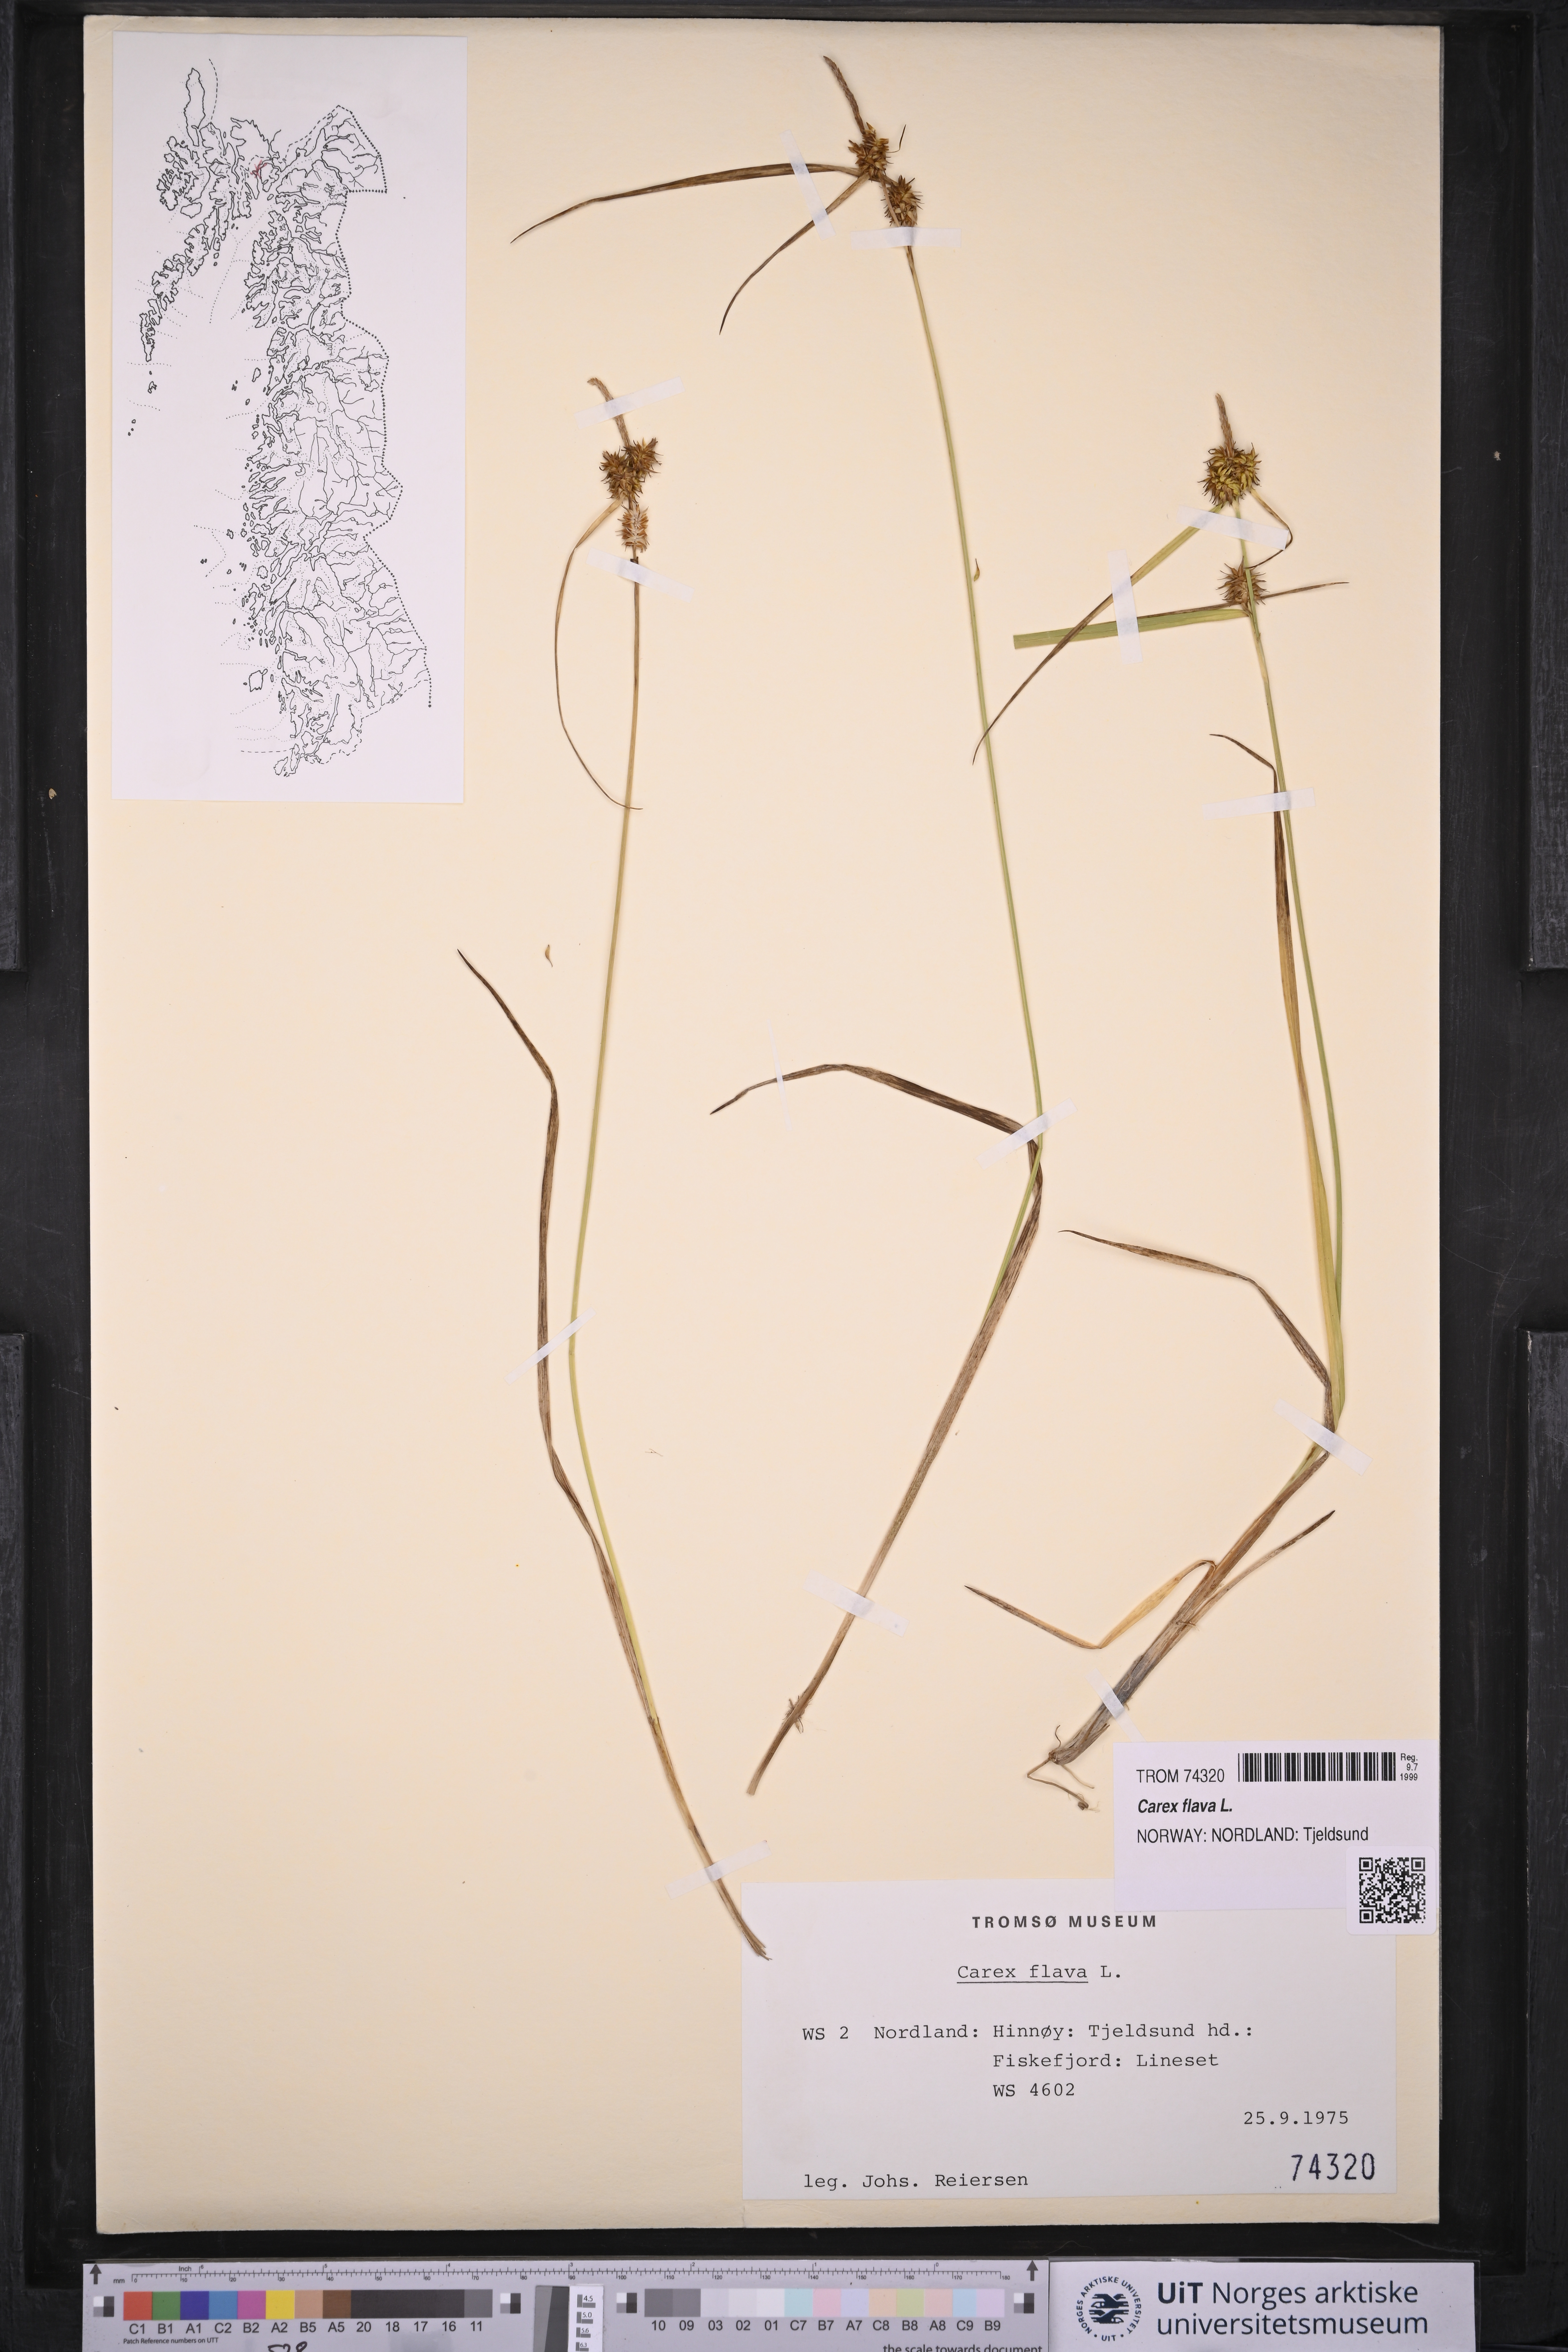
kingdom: Plantae
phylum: Tracheophyta
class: Liliopsida
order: Poales
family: Cyperaceae
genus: Carex
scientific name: Carex flava
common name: Large yellow-sedge
